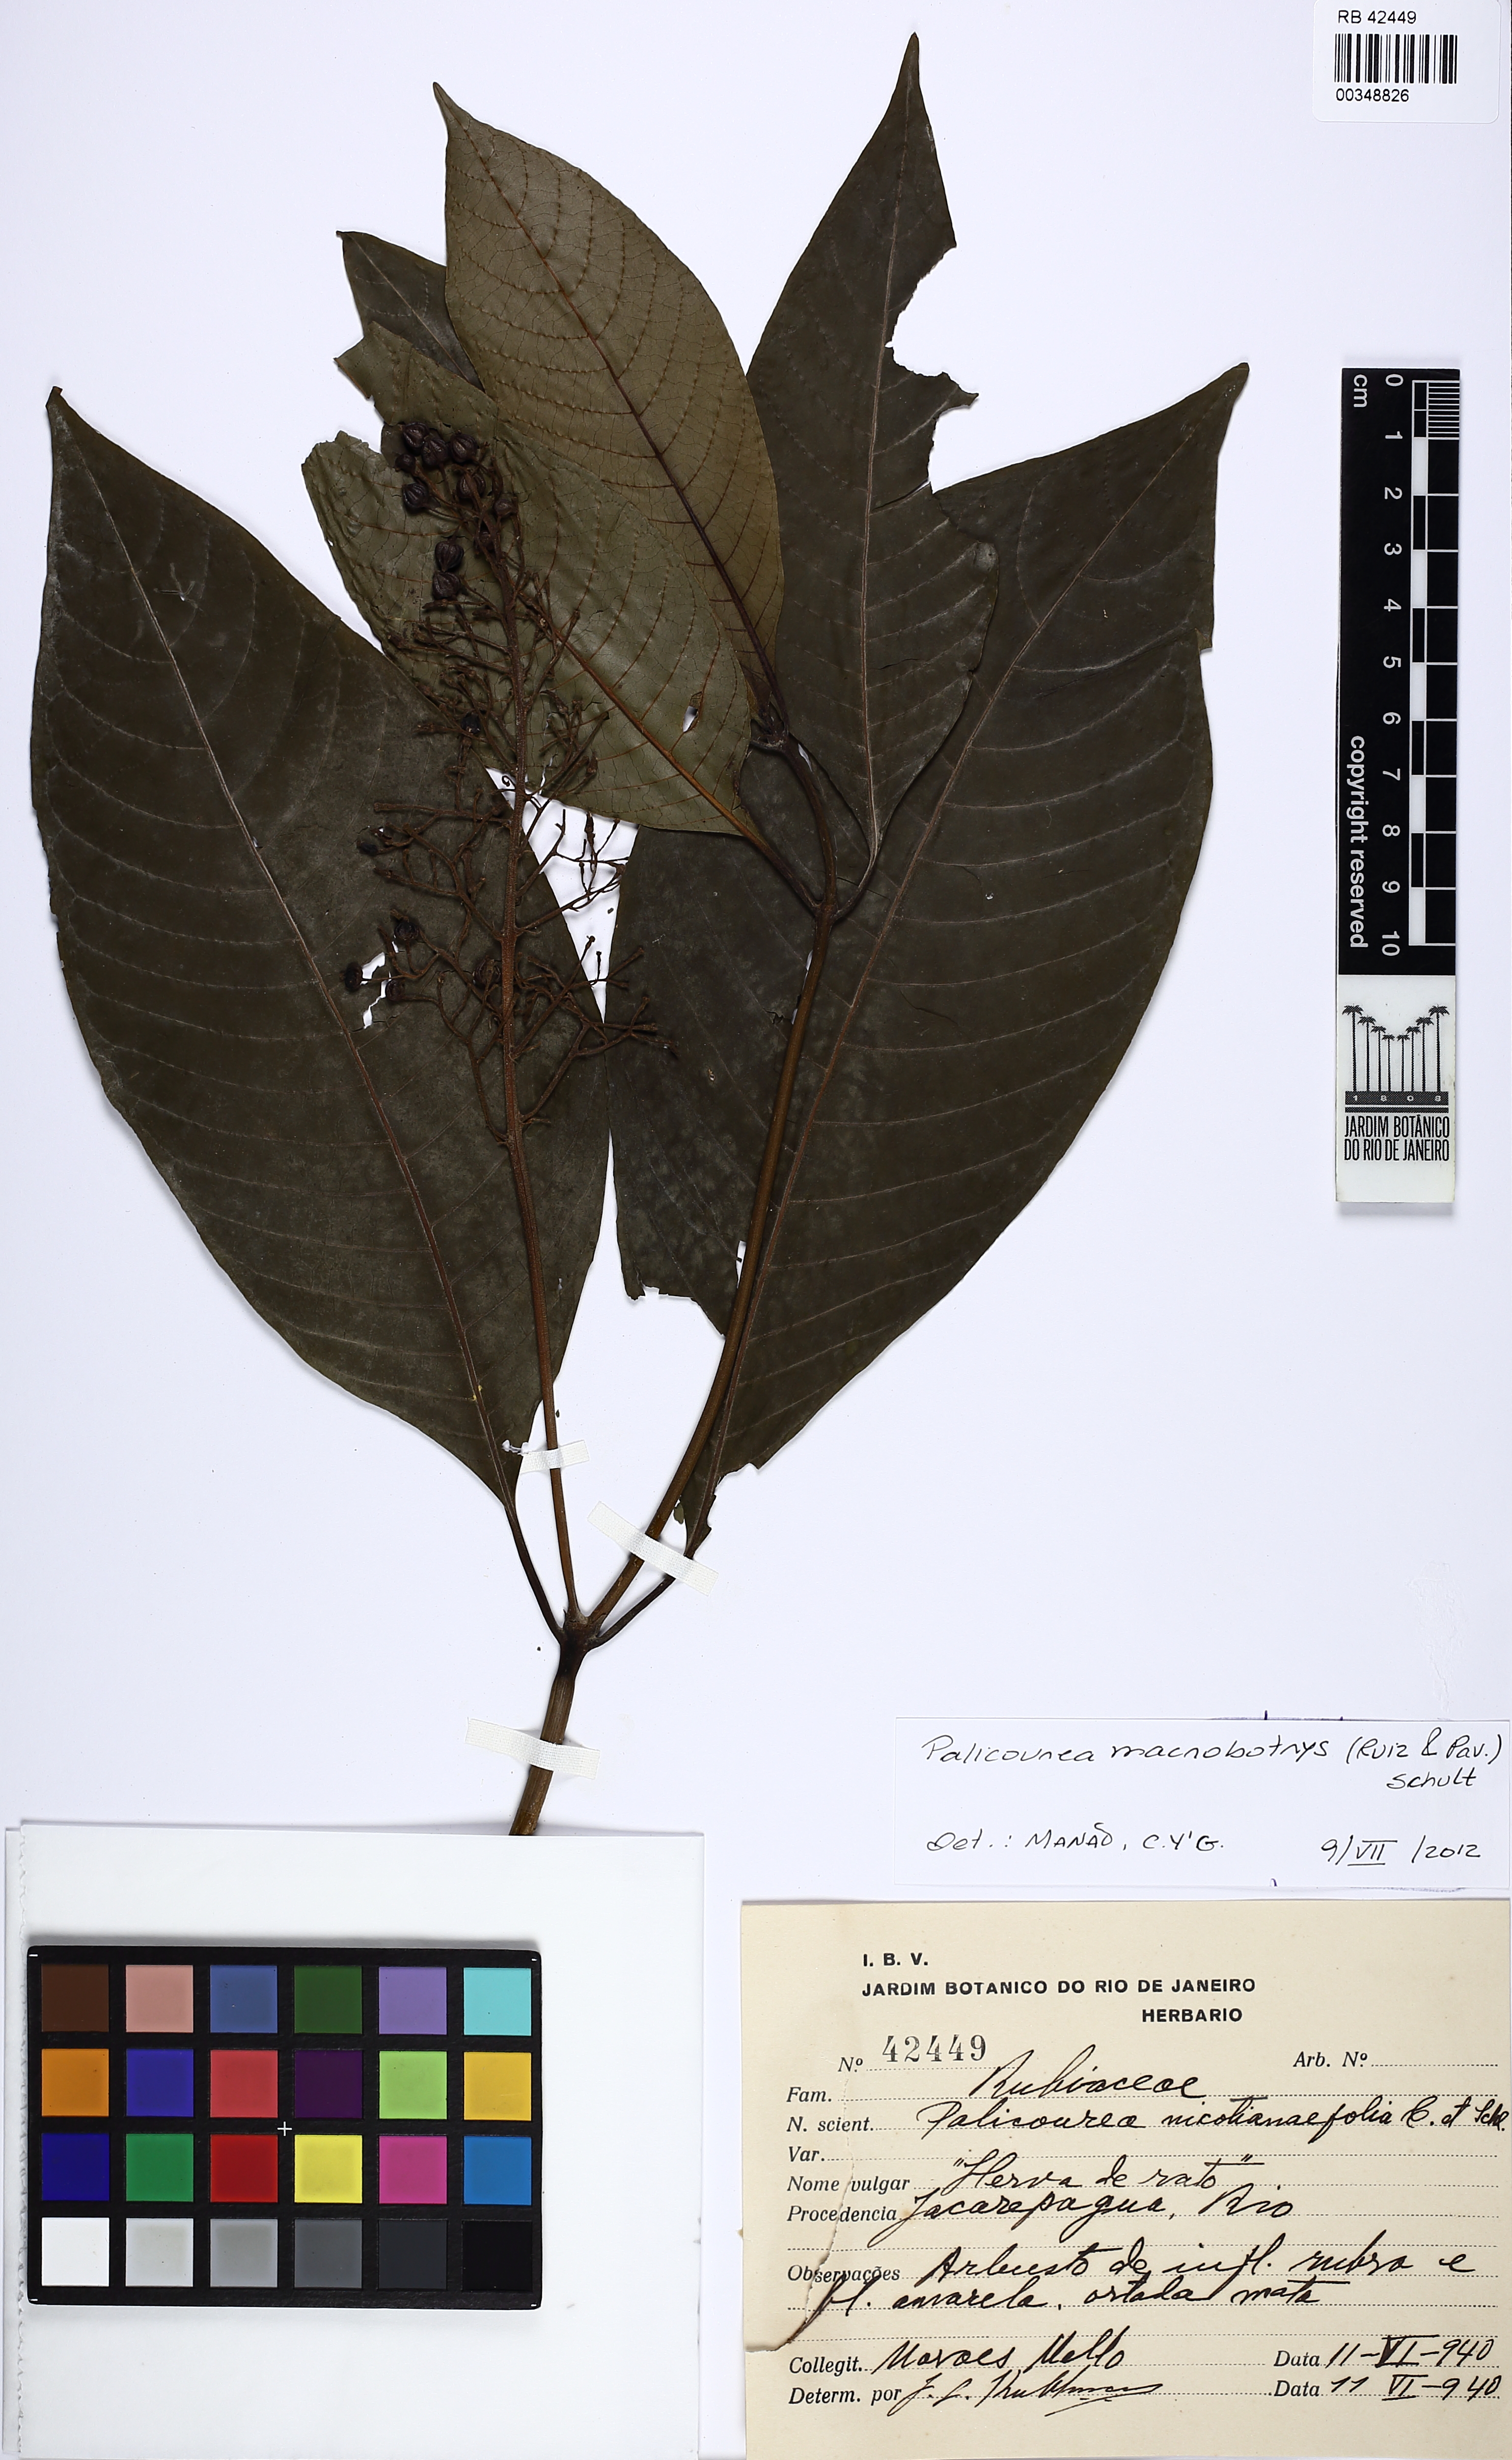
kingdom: Plantae
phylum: Tracheophyta
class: Magnoliopsida
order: Gentianales
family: Rubiaceae
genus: Palicourea
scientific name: Palicourea macrobotrys
